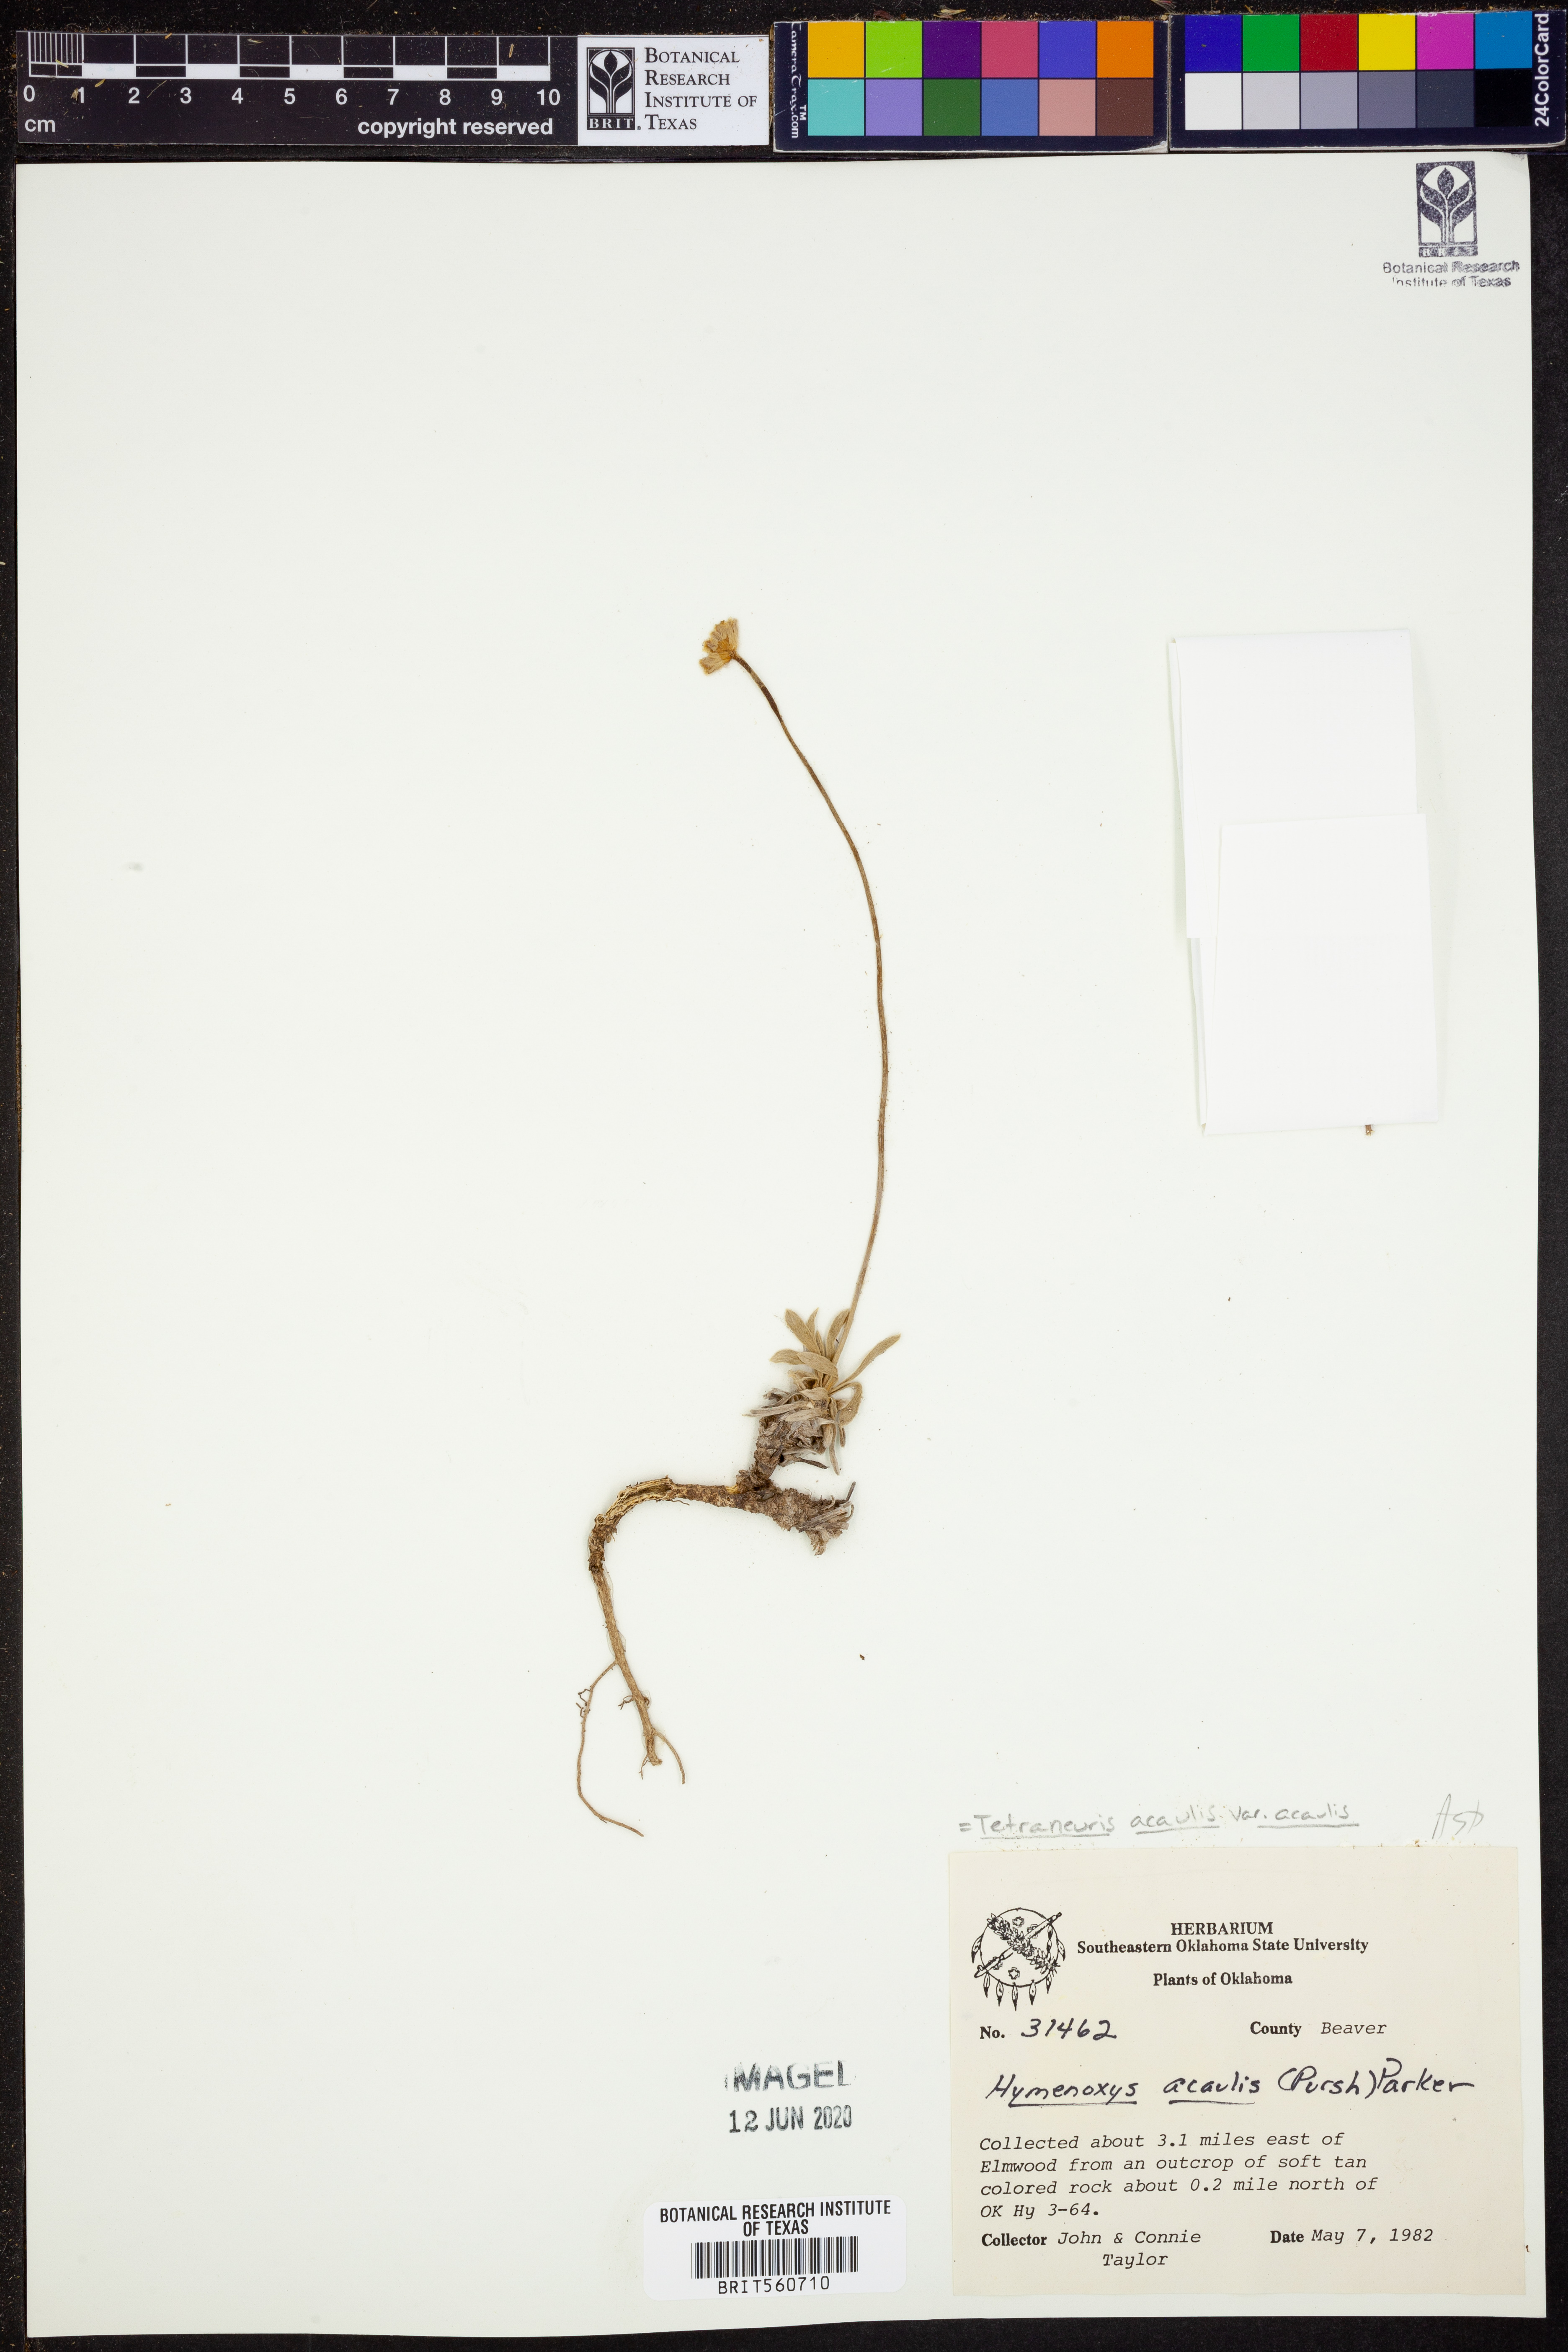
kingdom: Plantae
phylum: Tracheophyta
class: Magnoliopsida
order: Asterales
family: Asteraceae
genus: Tetraneuris
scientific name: Tetraneuris acaulis
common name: Butte marigold
